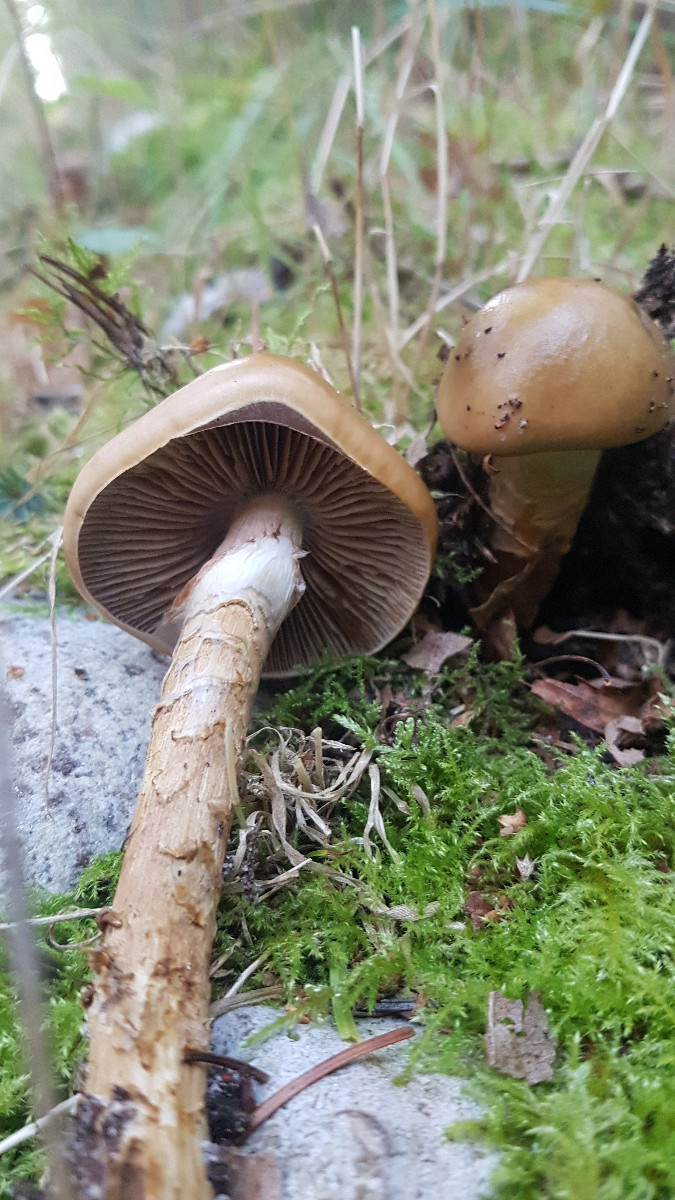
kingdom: Fungi
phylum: Basidiomycota
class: Agaricomycetes
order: Agaricales
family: Cortinariaceae
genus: Cortinarius
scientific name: Cortinarius trivialis
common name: brunslimet slørhat
